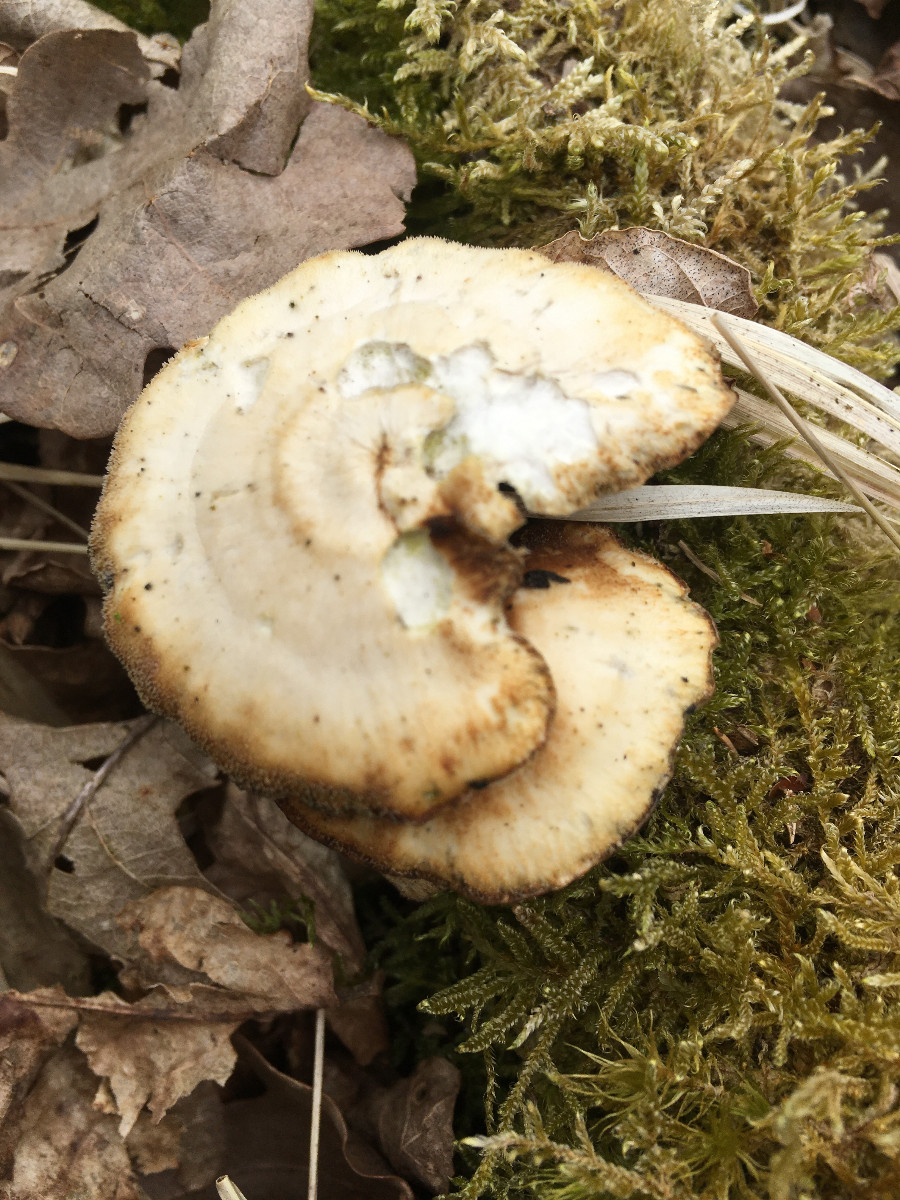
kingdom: Fungi
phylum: Basidiomycota
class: Agaricomycetes
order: Polyporales
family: Polyporaceae
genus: Lentinus
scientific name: Lentinus brumalis
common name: vinter-stilkporesvamp
